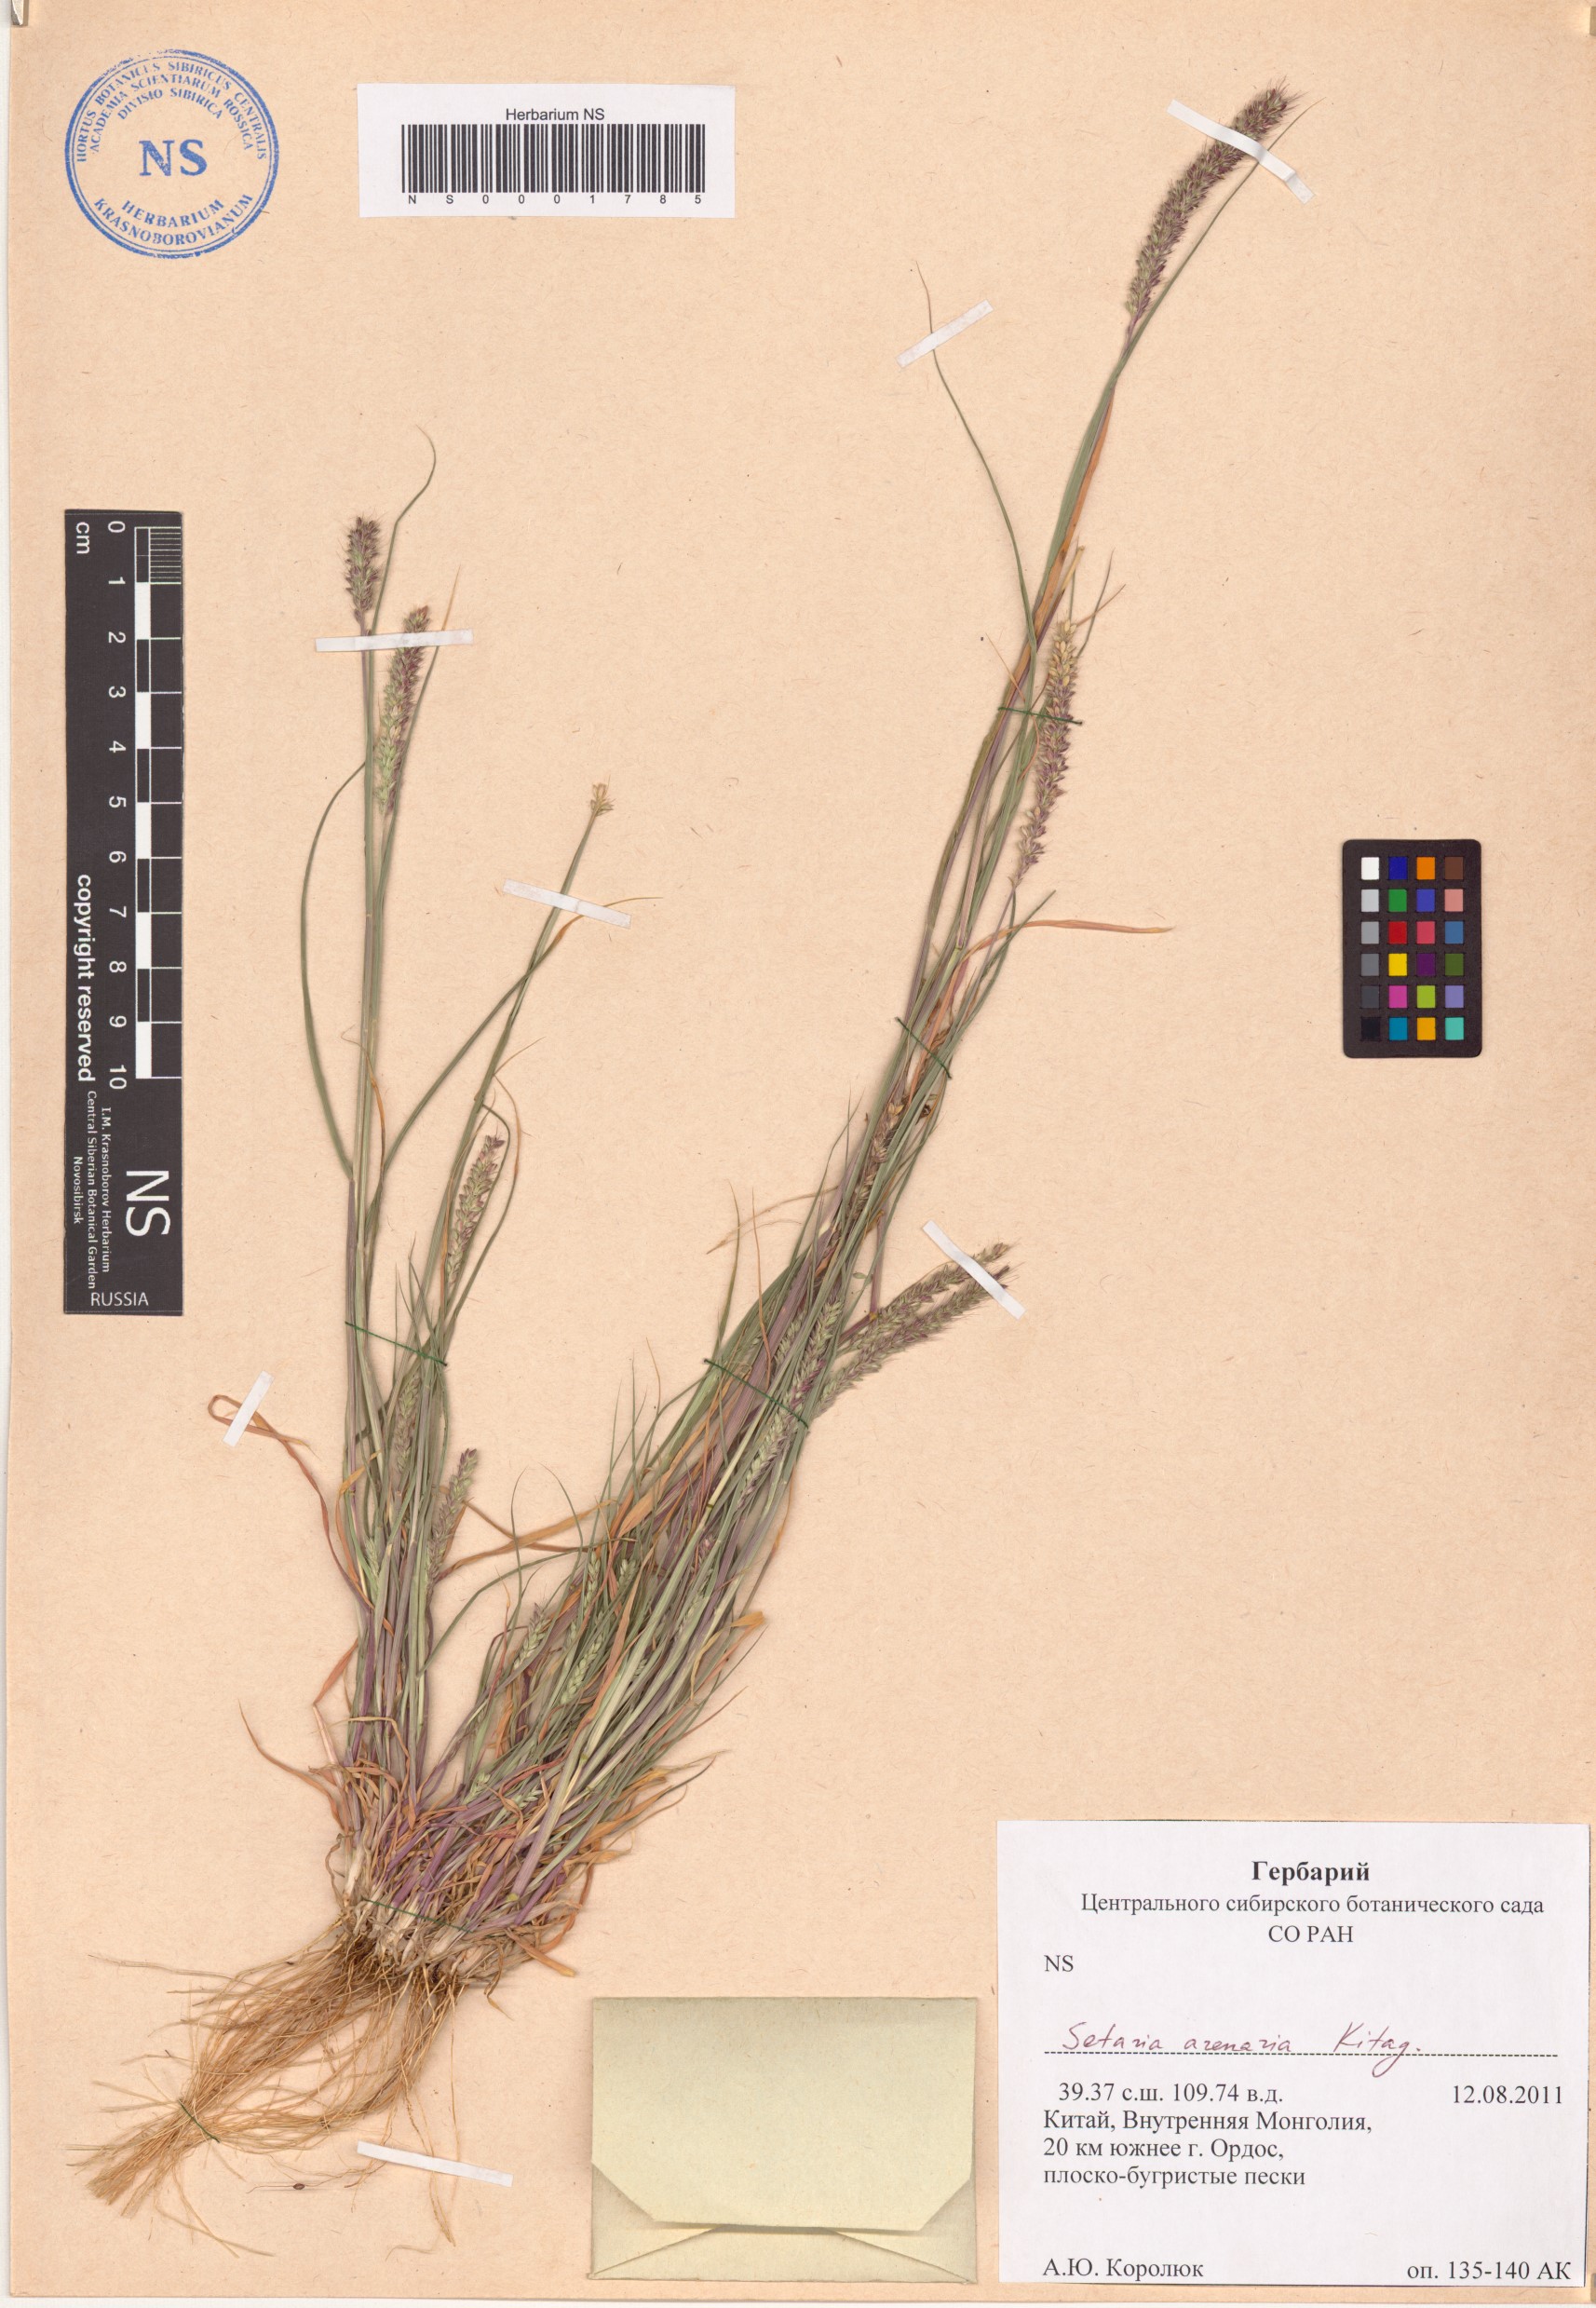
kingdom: Plantae
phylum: Tracheophyta
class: Liliopsida
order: Poales
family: Poaceae
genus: Setaria
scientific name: Setaria viridis
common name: Green bristlegrass
